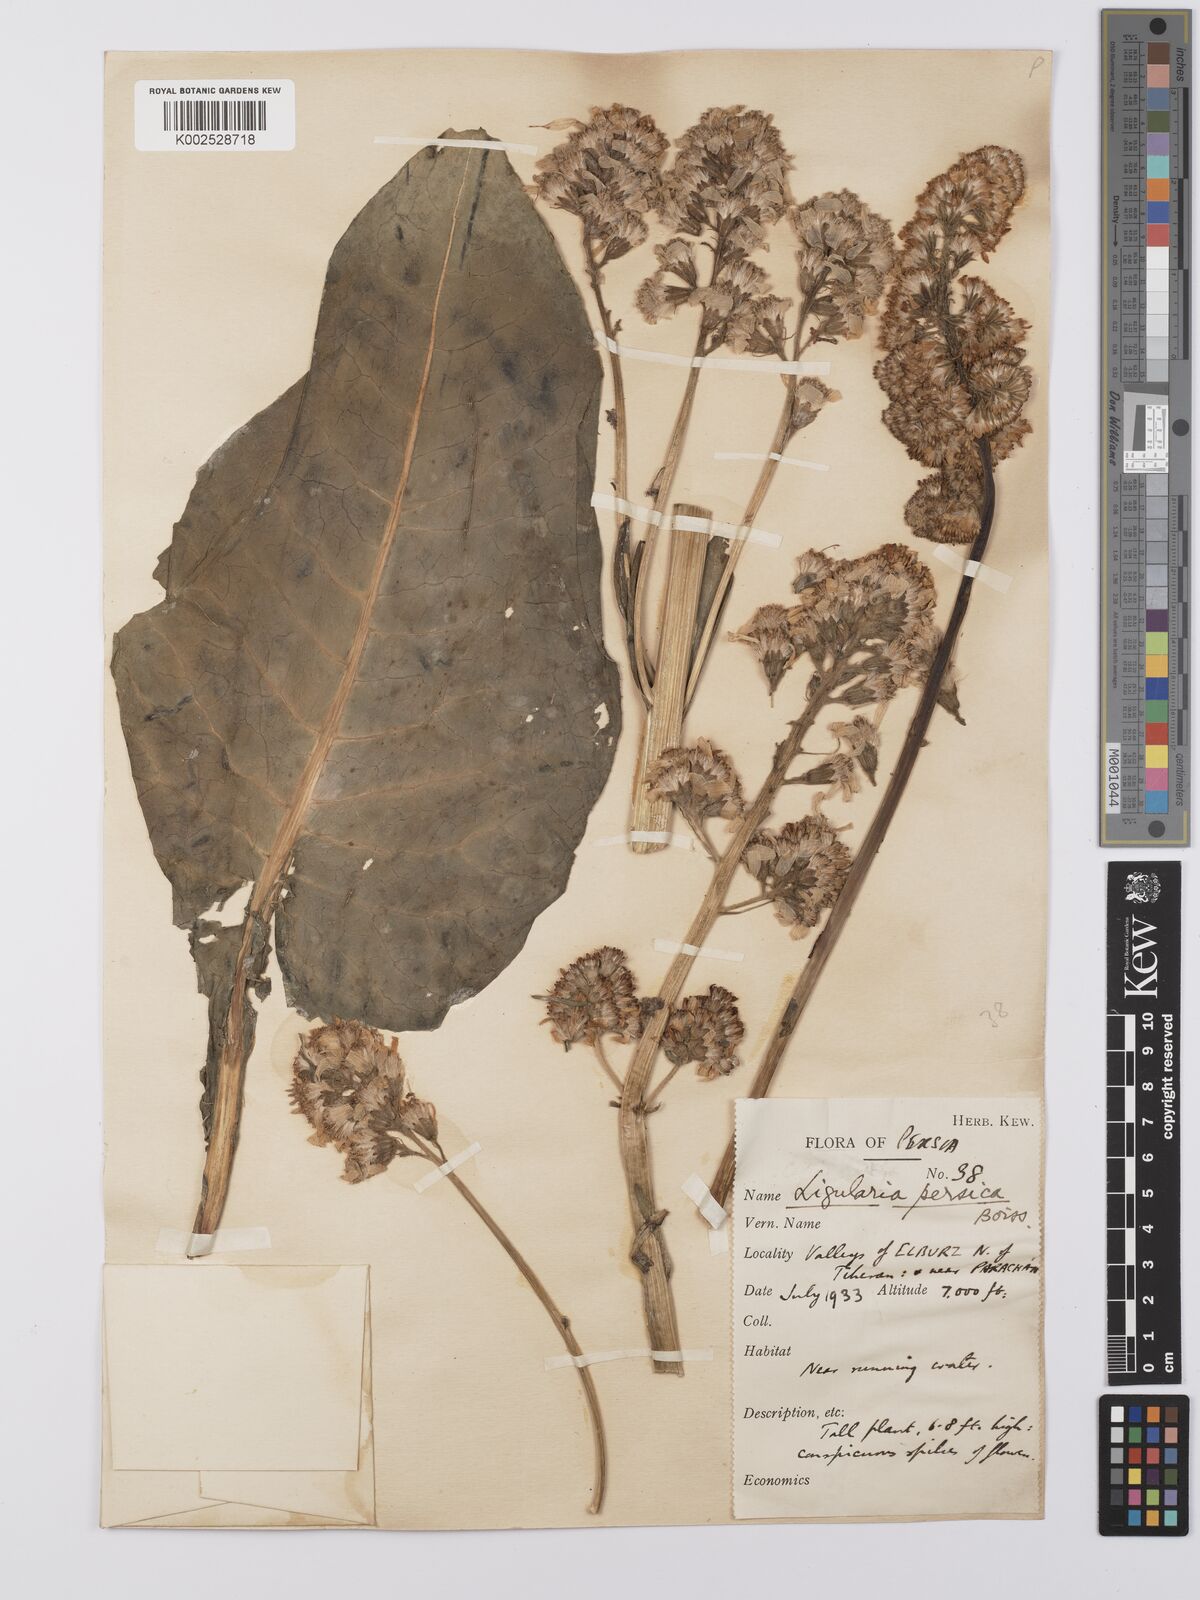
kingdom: Plantae
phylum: Tracheophyta
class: Magnoliopsida
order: Asterales
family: Asteraceae
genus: Dolichorrhiza
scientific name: Dolichorrhiza persica
